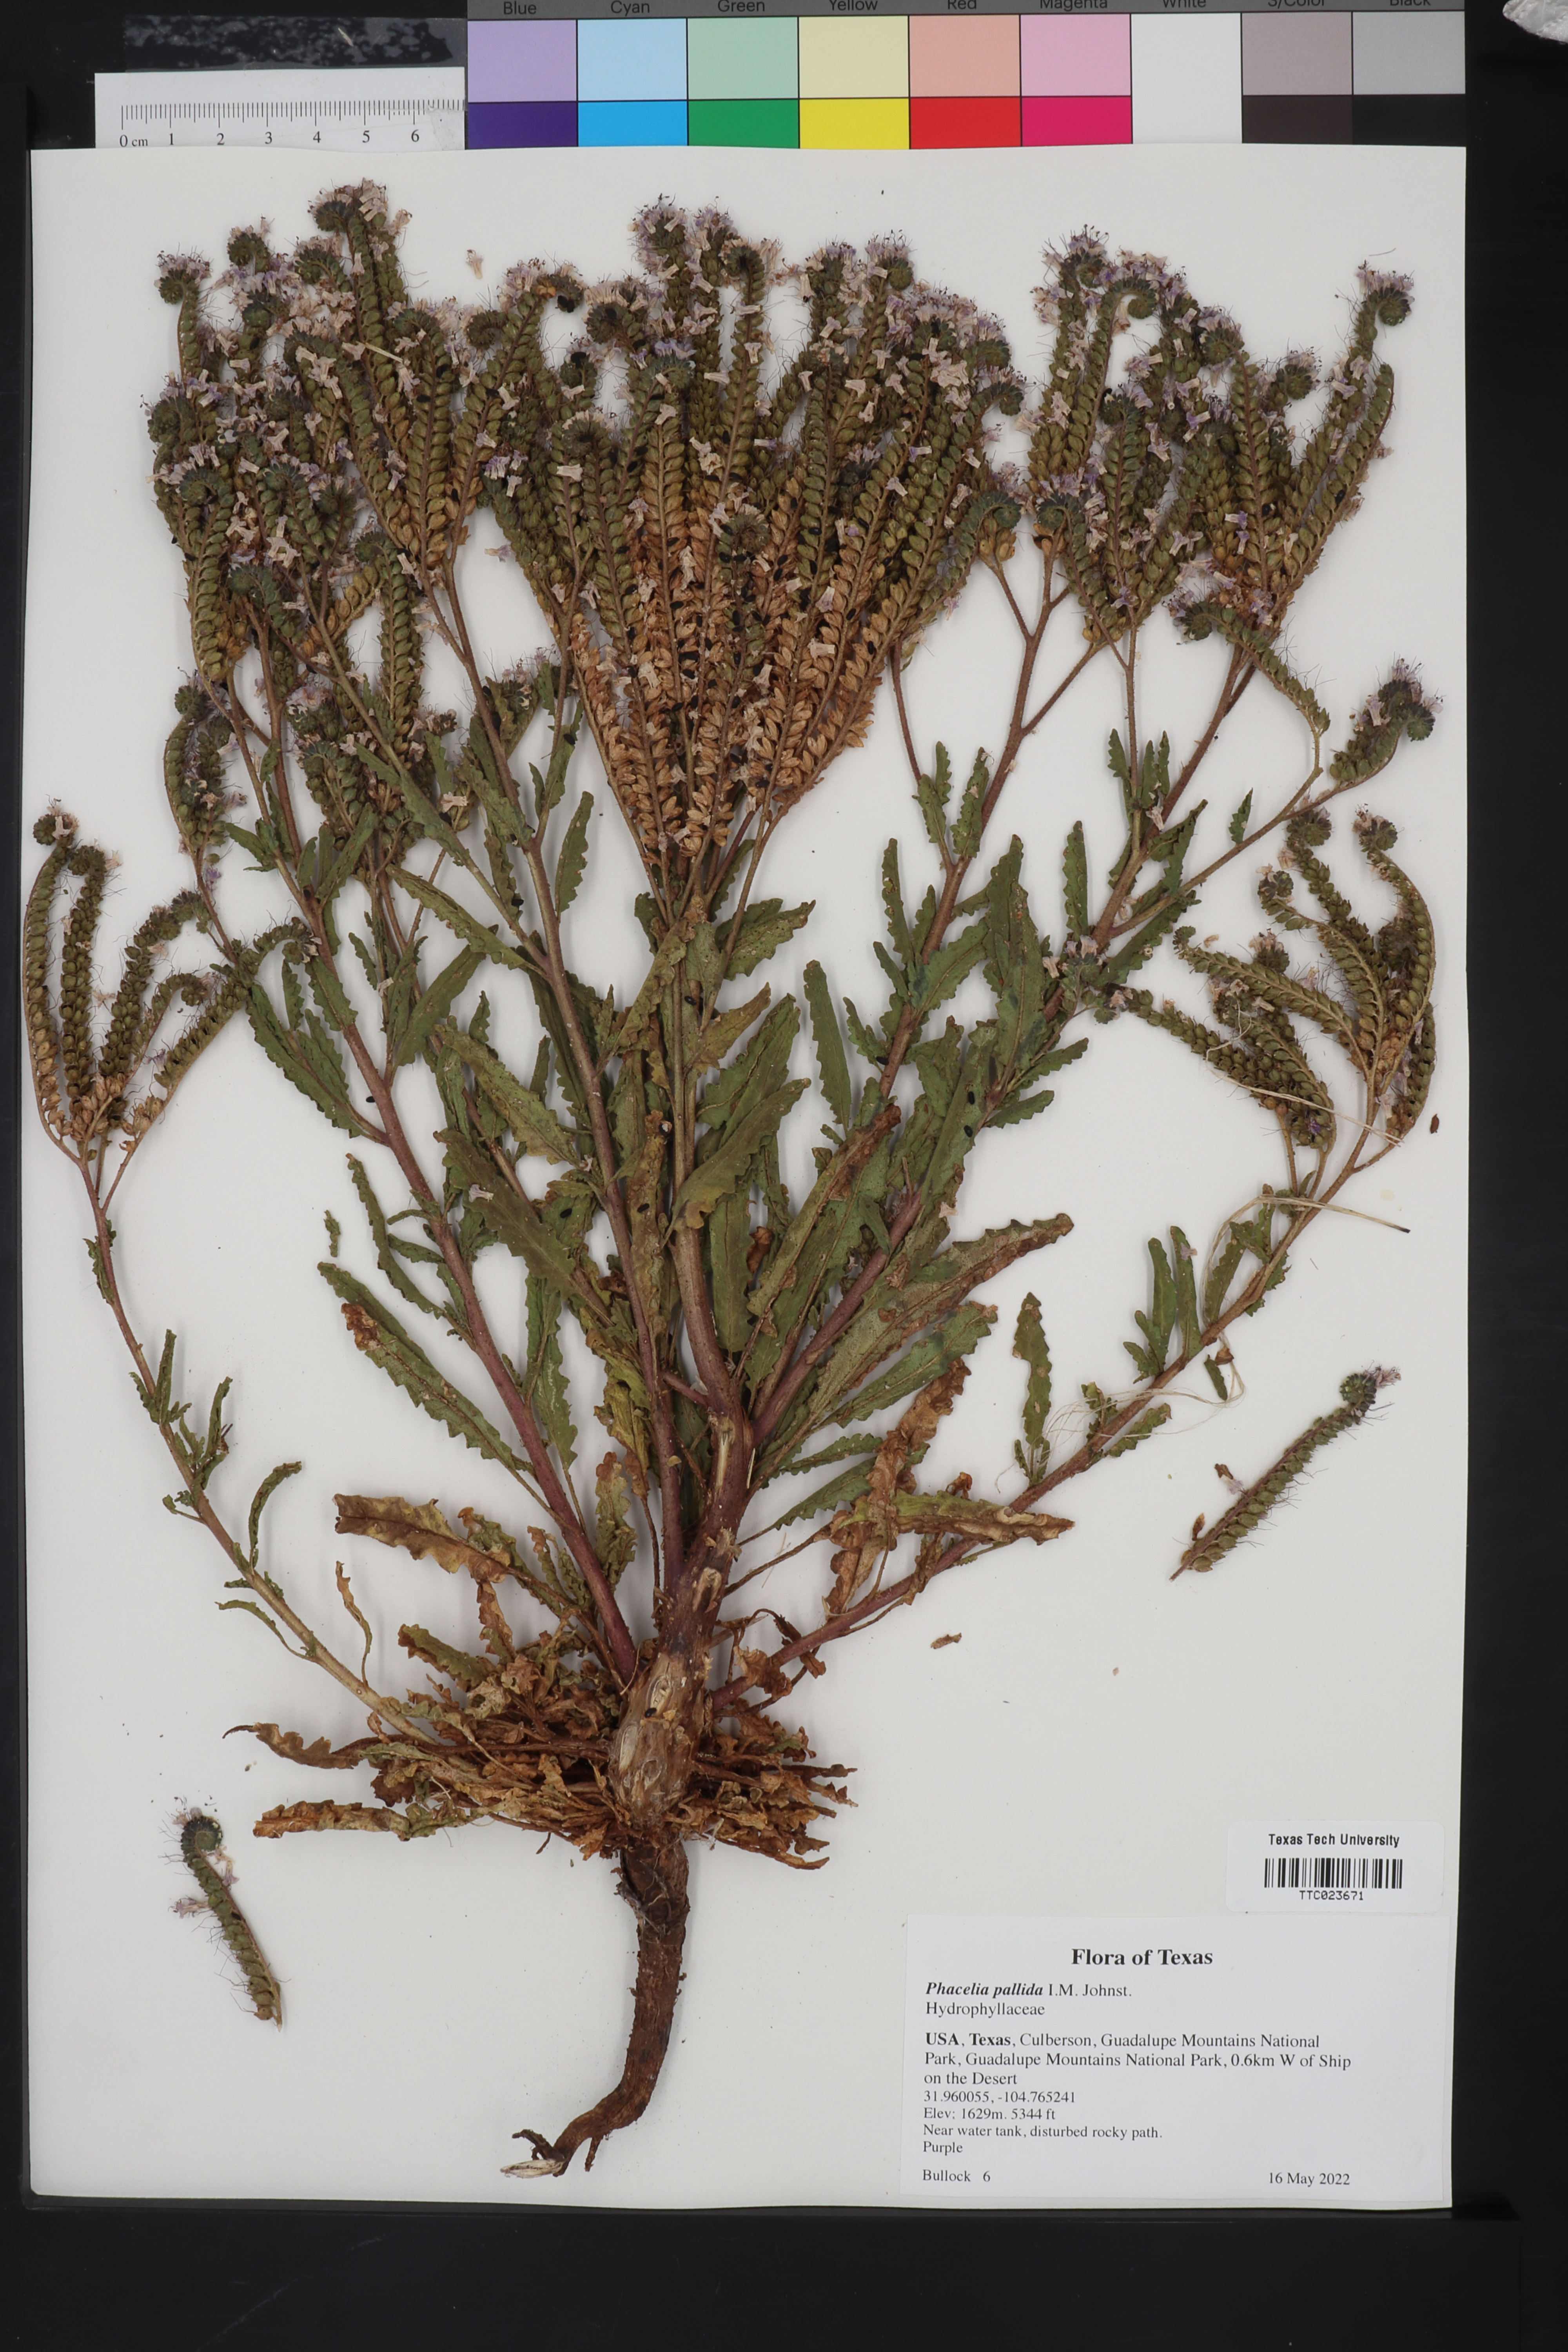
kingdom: Plantae
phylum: Tracheophyta
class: Magnoliopsida
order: Boraginales
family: Hydrophyllaceae
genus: Phacelia
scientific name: Phacelia pallida
